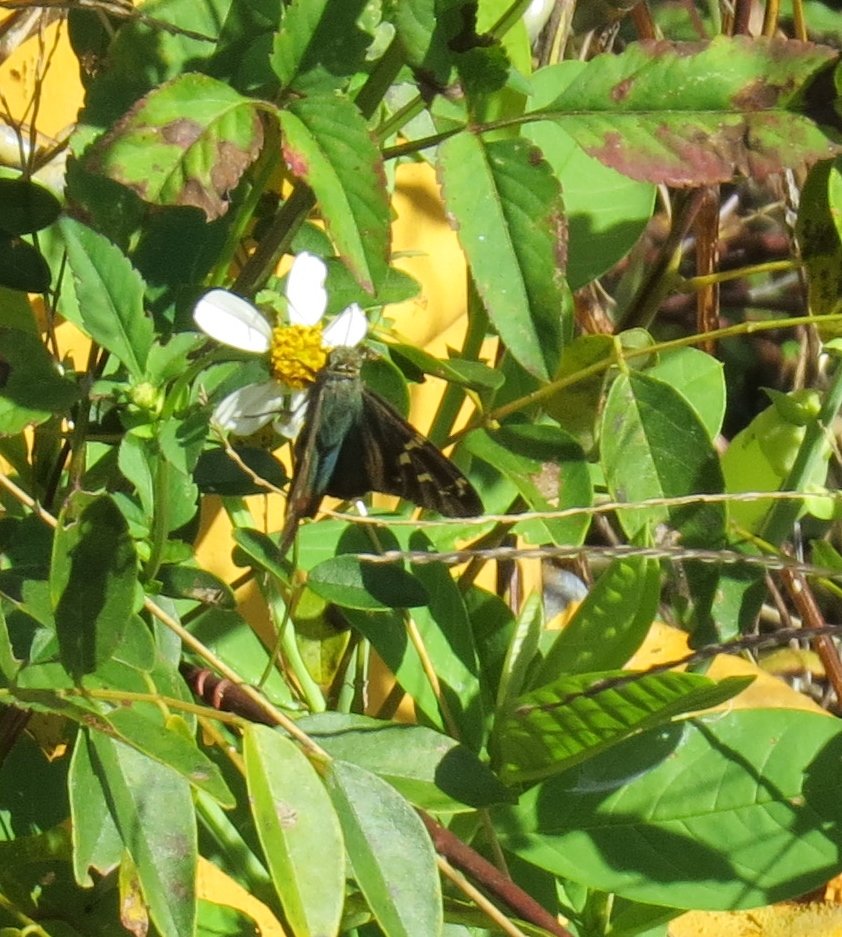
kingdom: Animalia
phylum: Arthropoda
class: Insecta
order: Lepidoptera
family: Hesperiidae
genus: Urbanus
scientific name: Urbanus proteus
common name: Long-tailed Skipper
